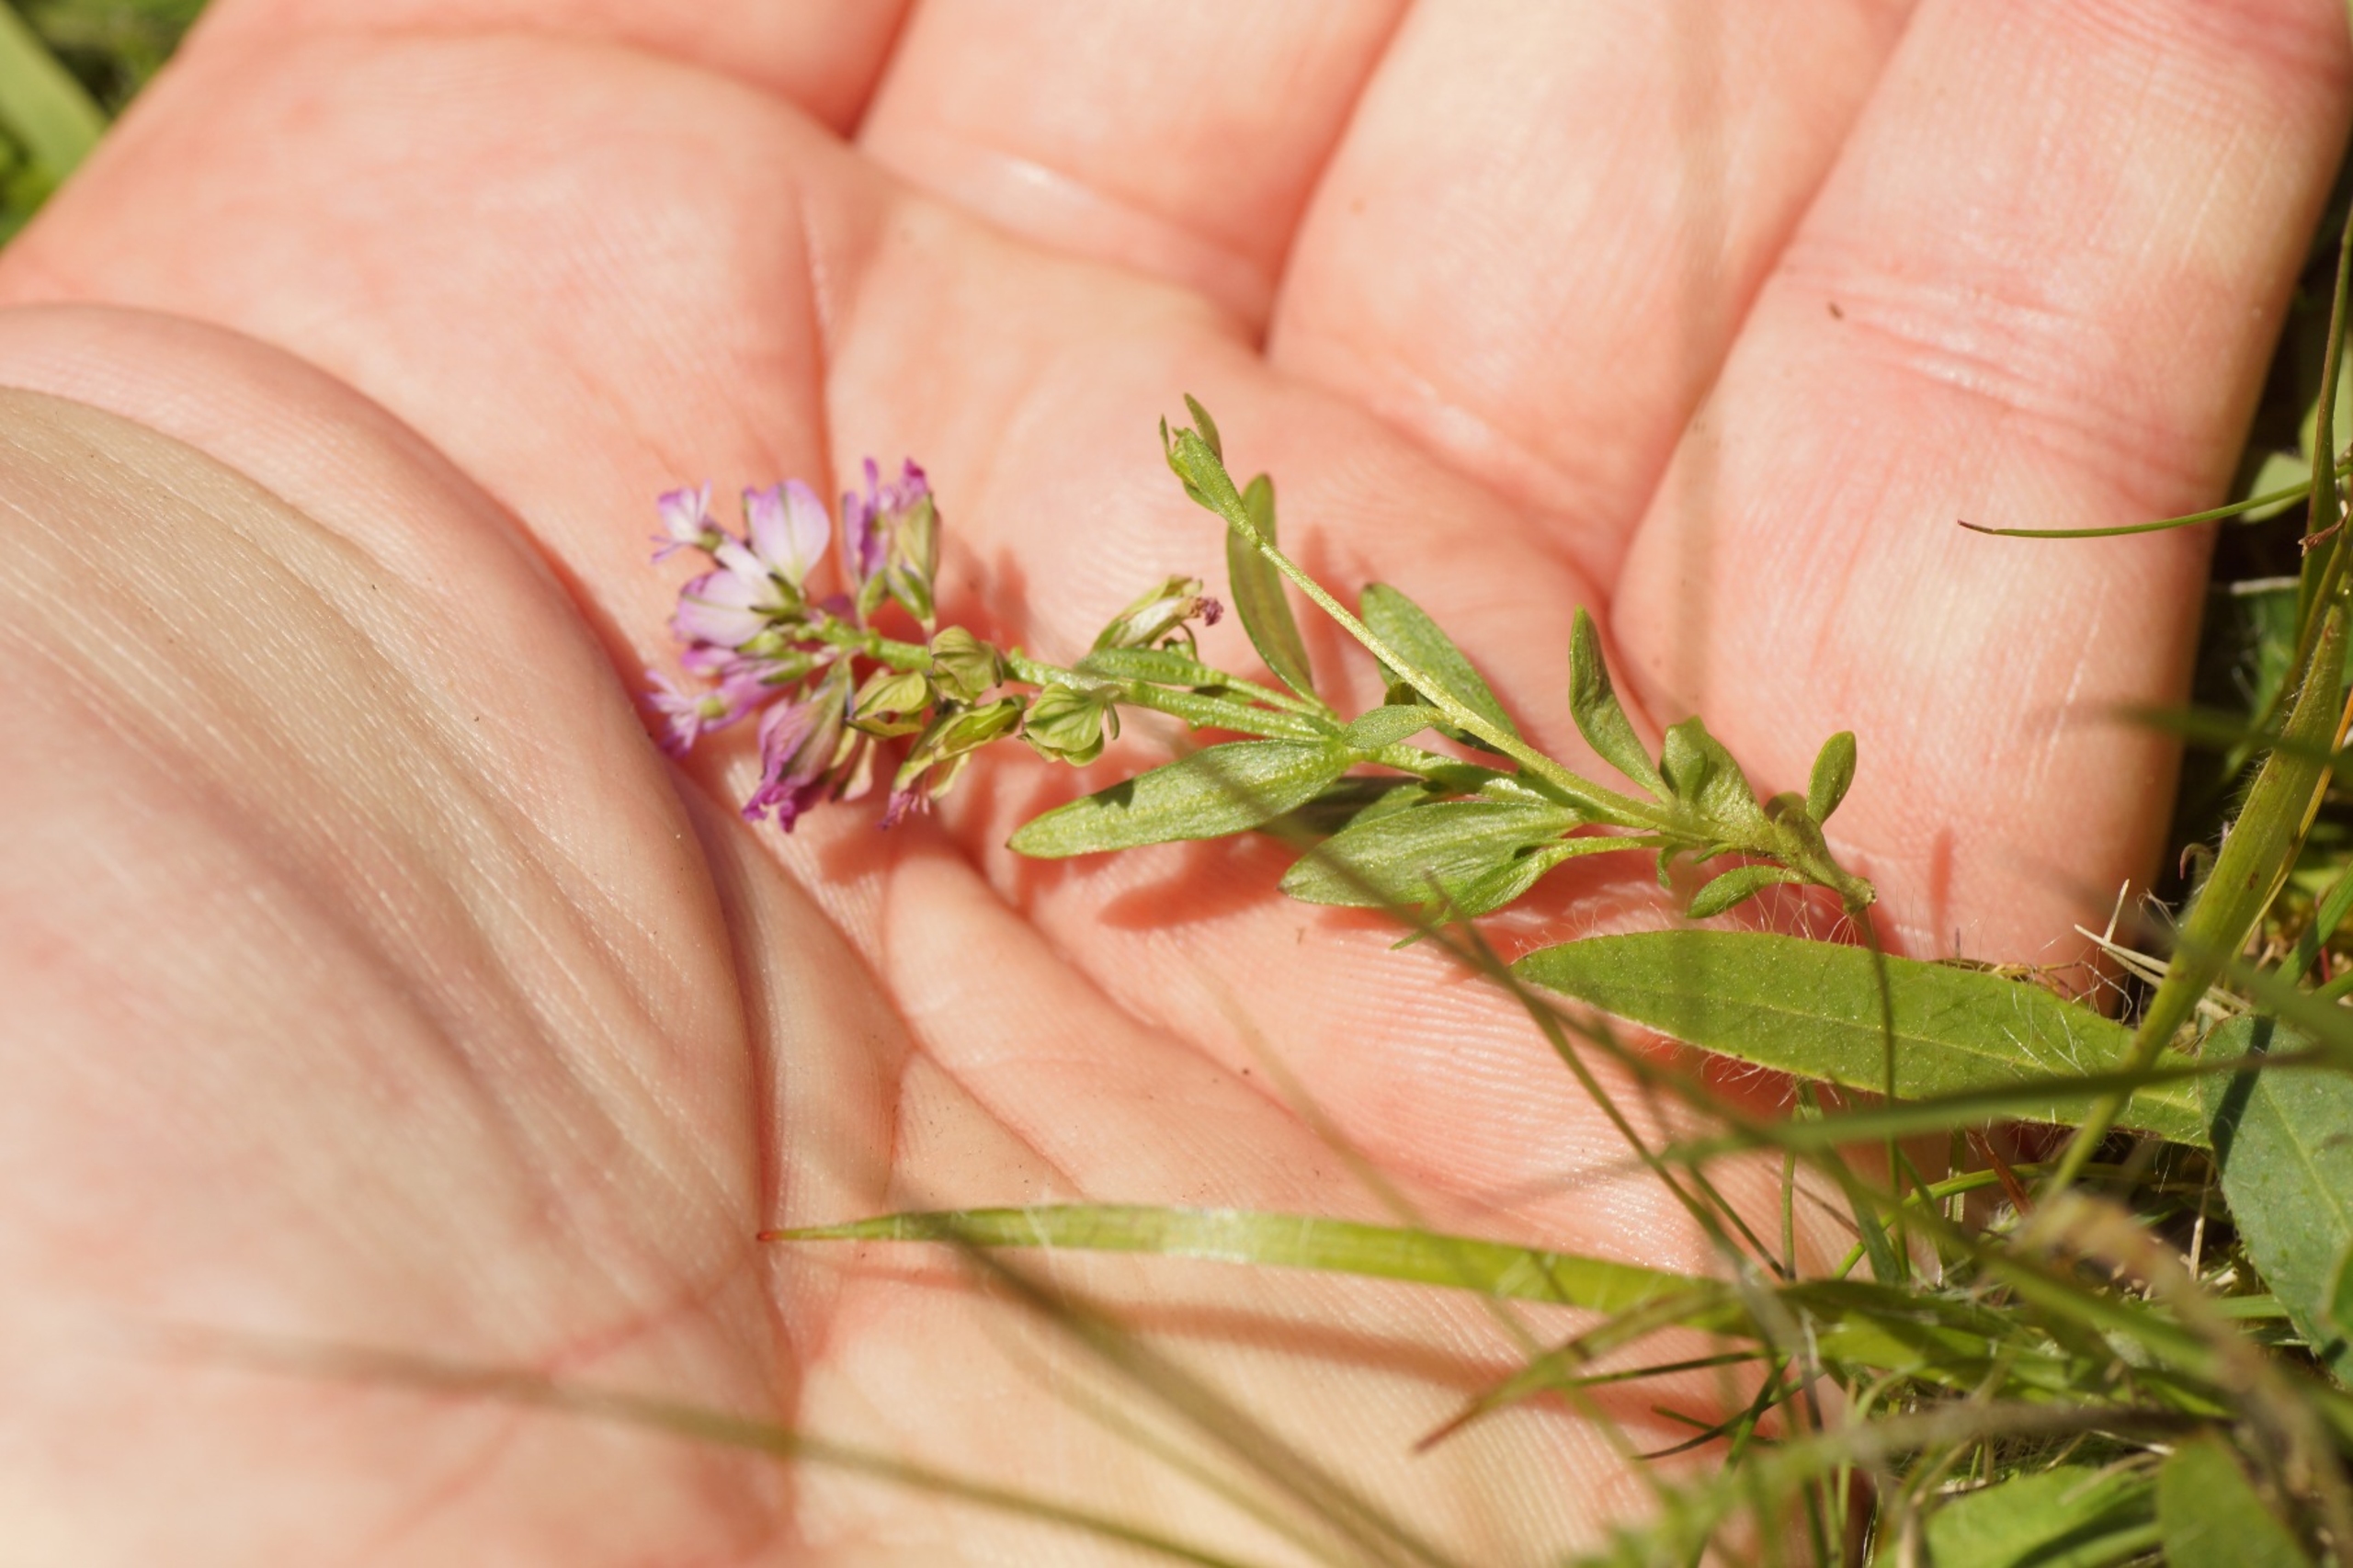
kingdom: Plantae
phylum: Tracheophyta
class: Magnoliopsida
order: Fabales
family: Polygalaceae
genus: Polygala
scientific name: Polygala vulgaris
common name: Almindelig mælkeurt
